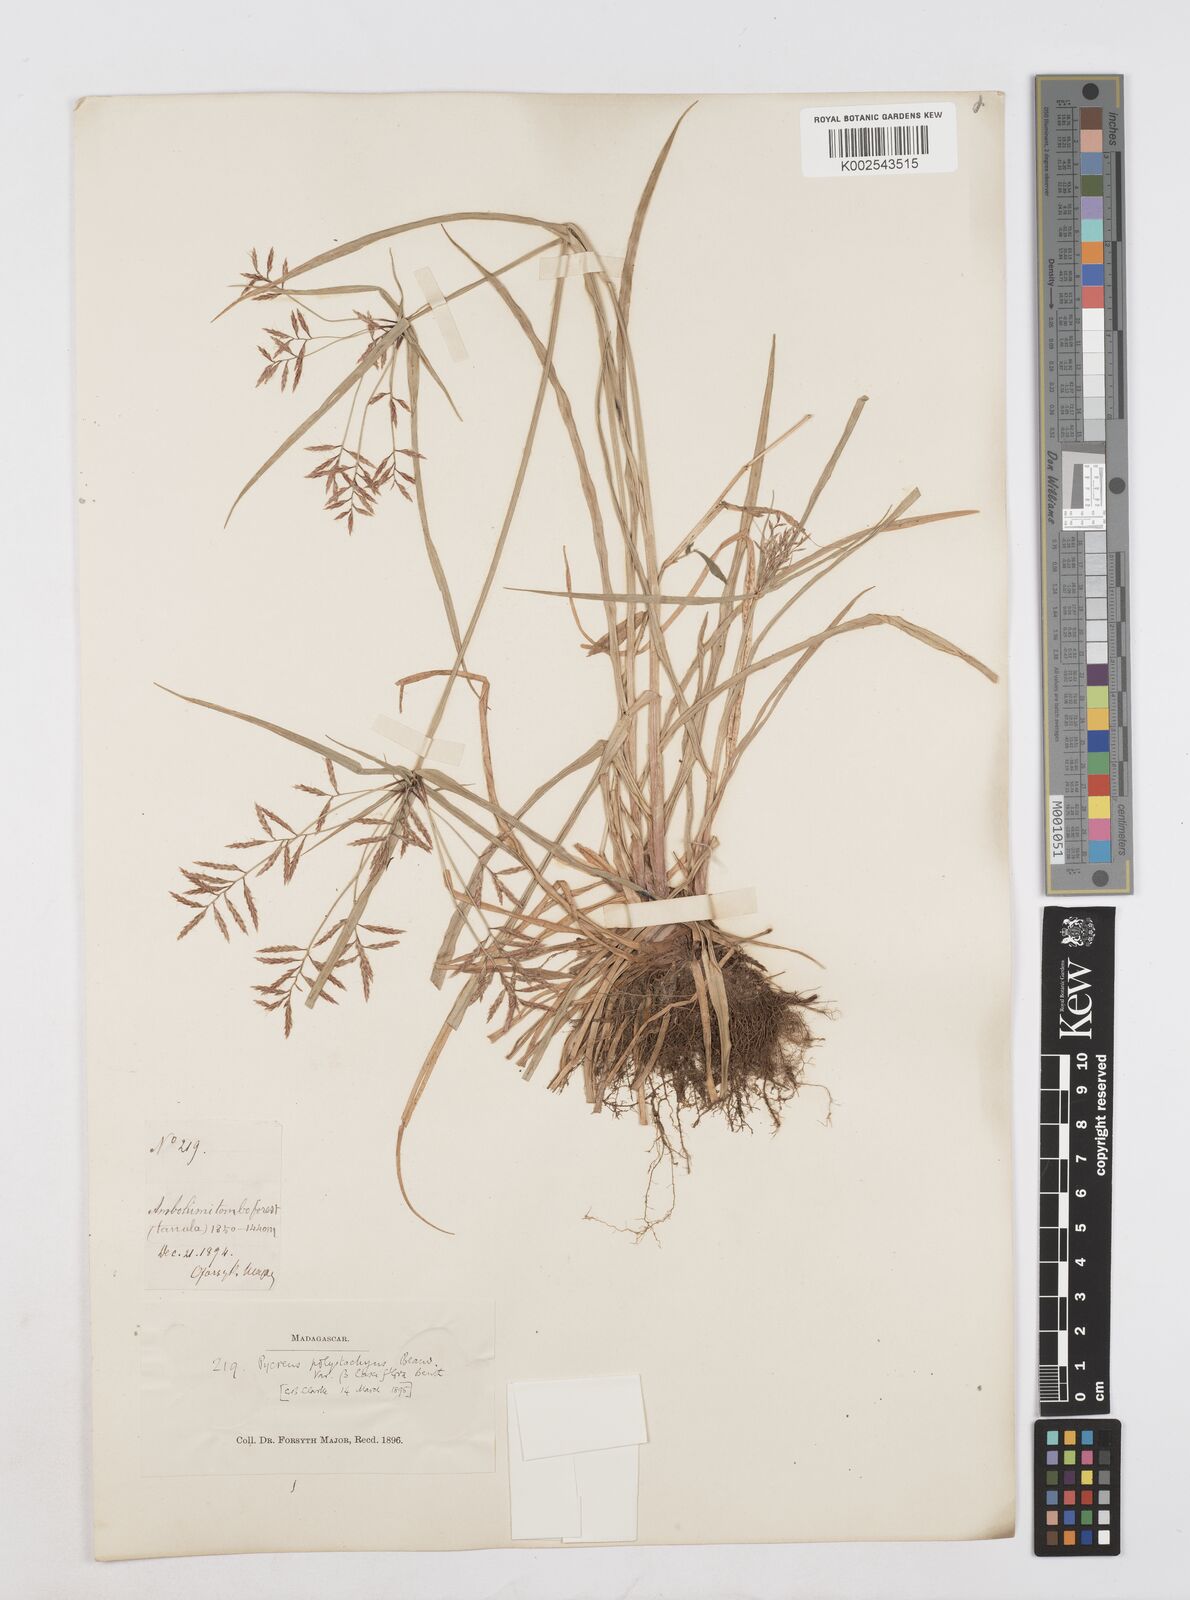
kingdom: Plantae
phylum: Tracheophyta
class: Liliopsida
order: Poales
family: Cyperaceae
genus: Cyperus
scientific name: Cyperus intactus
